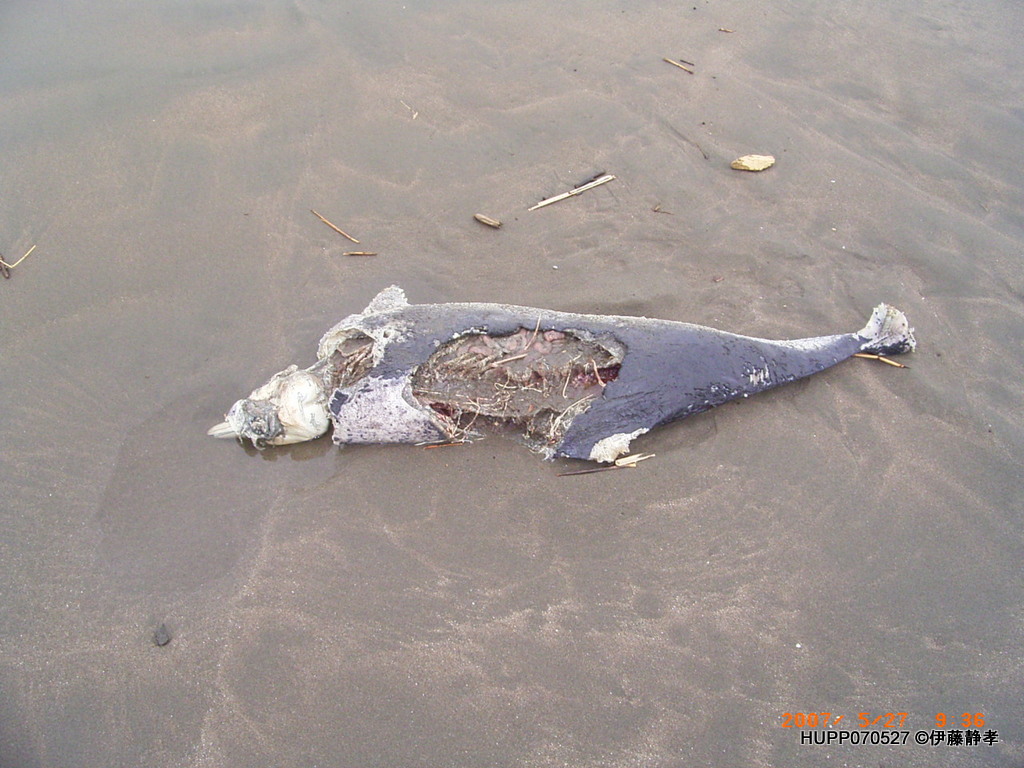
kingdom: Animalia
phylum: Chordata
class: Mammalia
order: Cetacea
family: Phocoenidae
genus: Phocoena
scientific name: Phocoena phocoena
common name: Harbour porpoise
